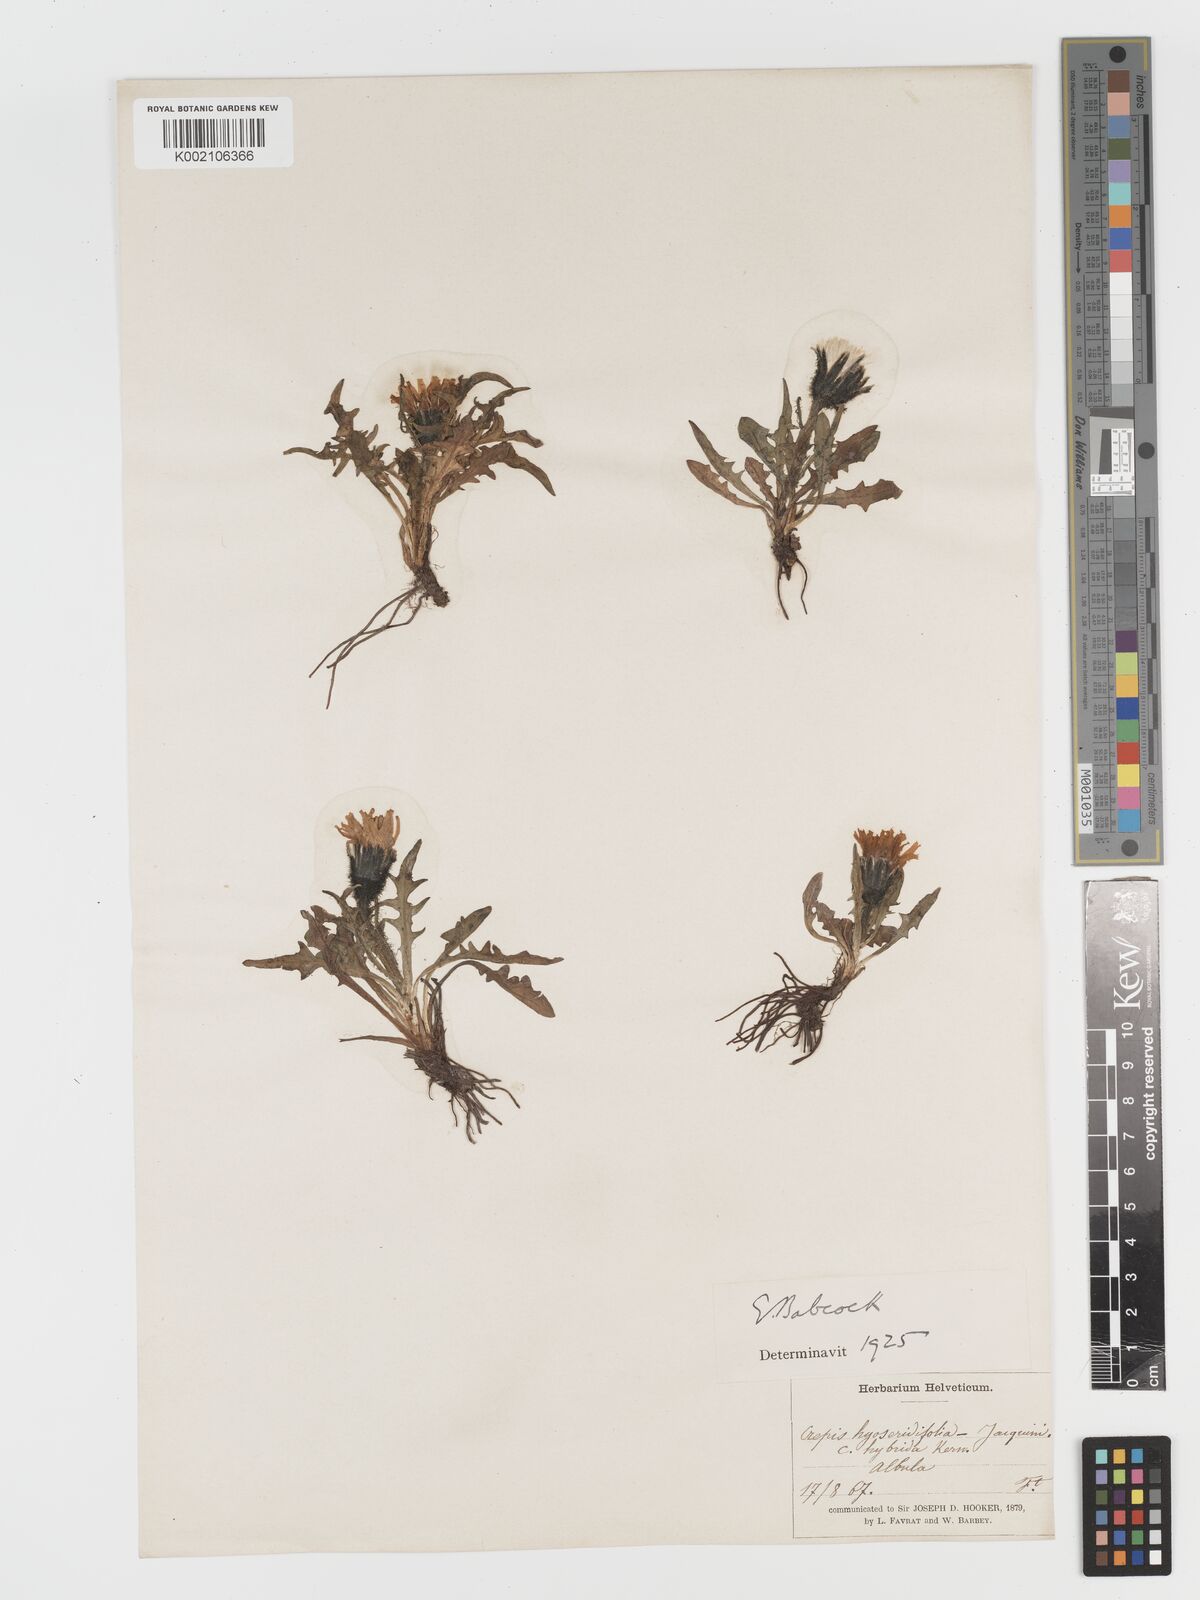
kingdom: Plantae
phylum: Tracheophyta
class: Magnoliopsida
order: Asterales
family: Asteraceae
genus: Crepis
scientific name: Crepis hybrida
